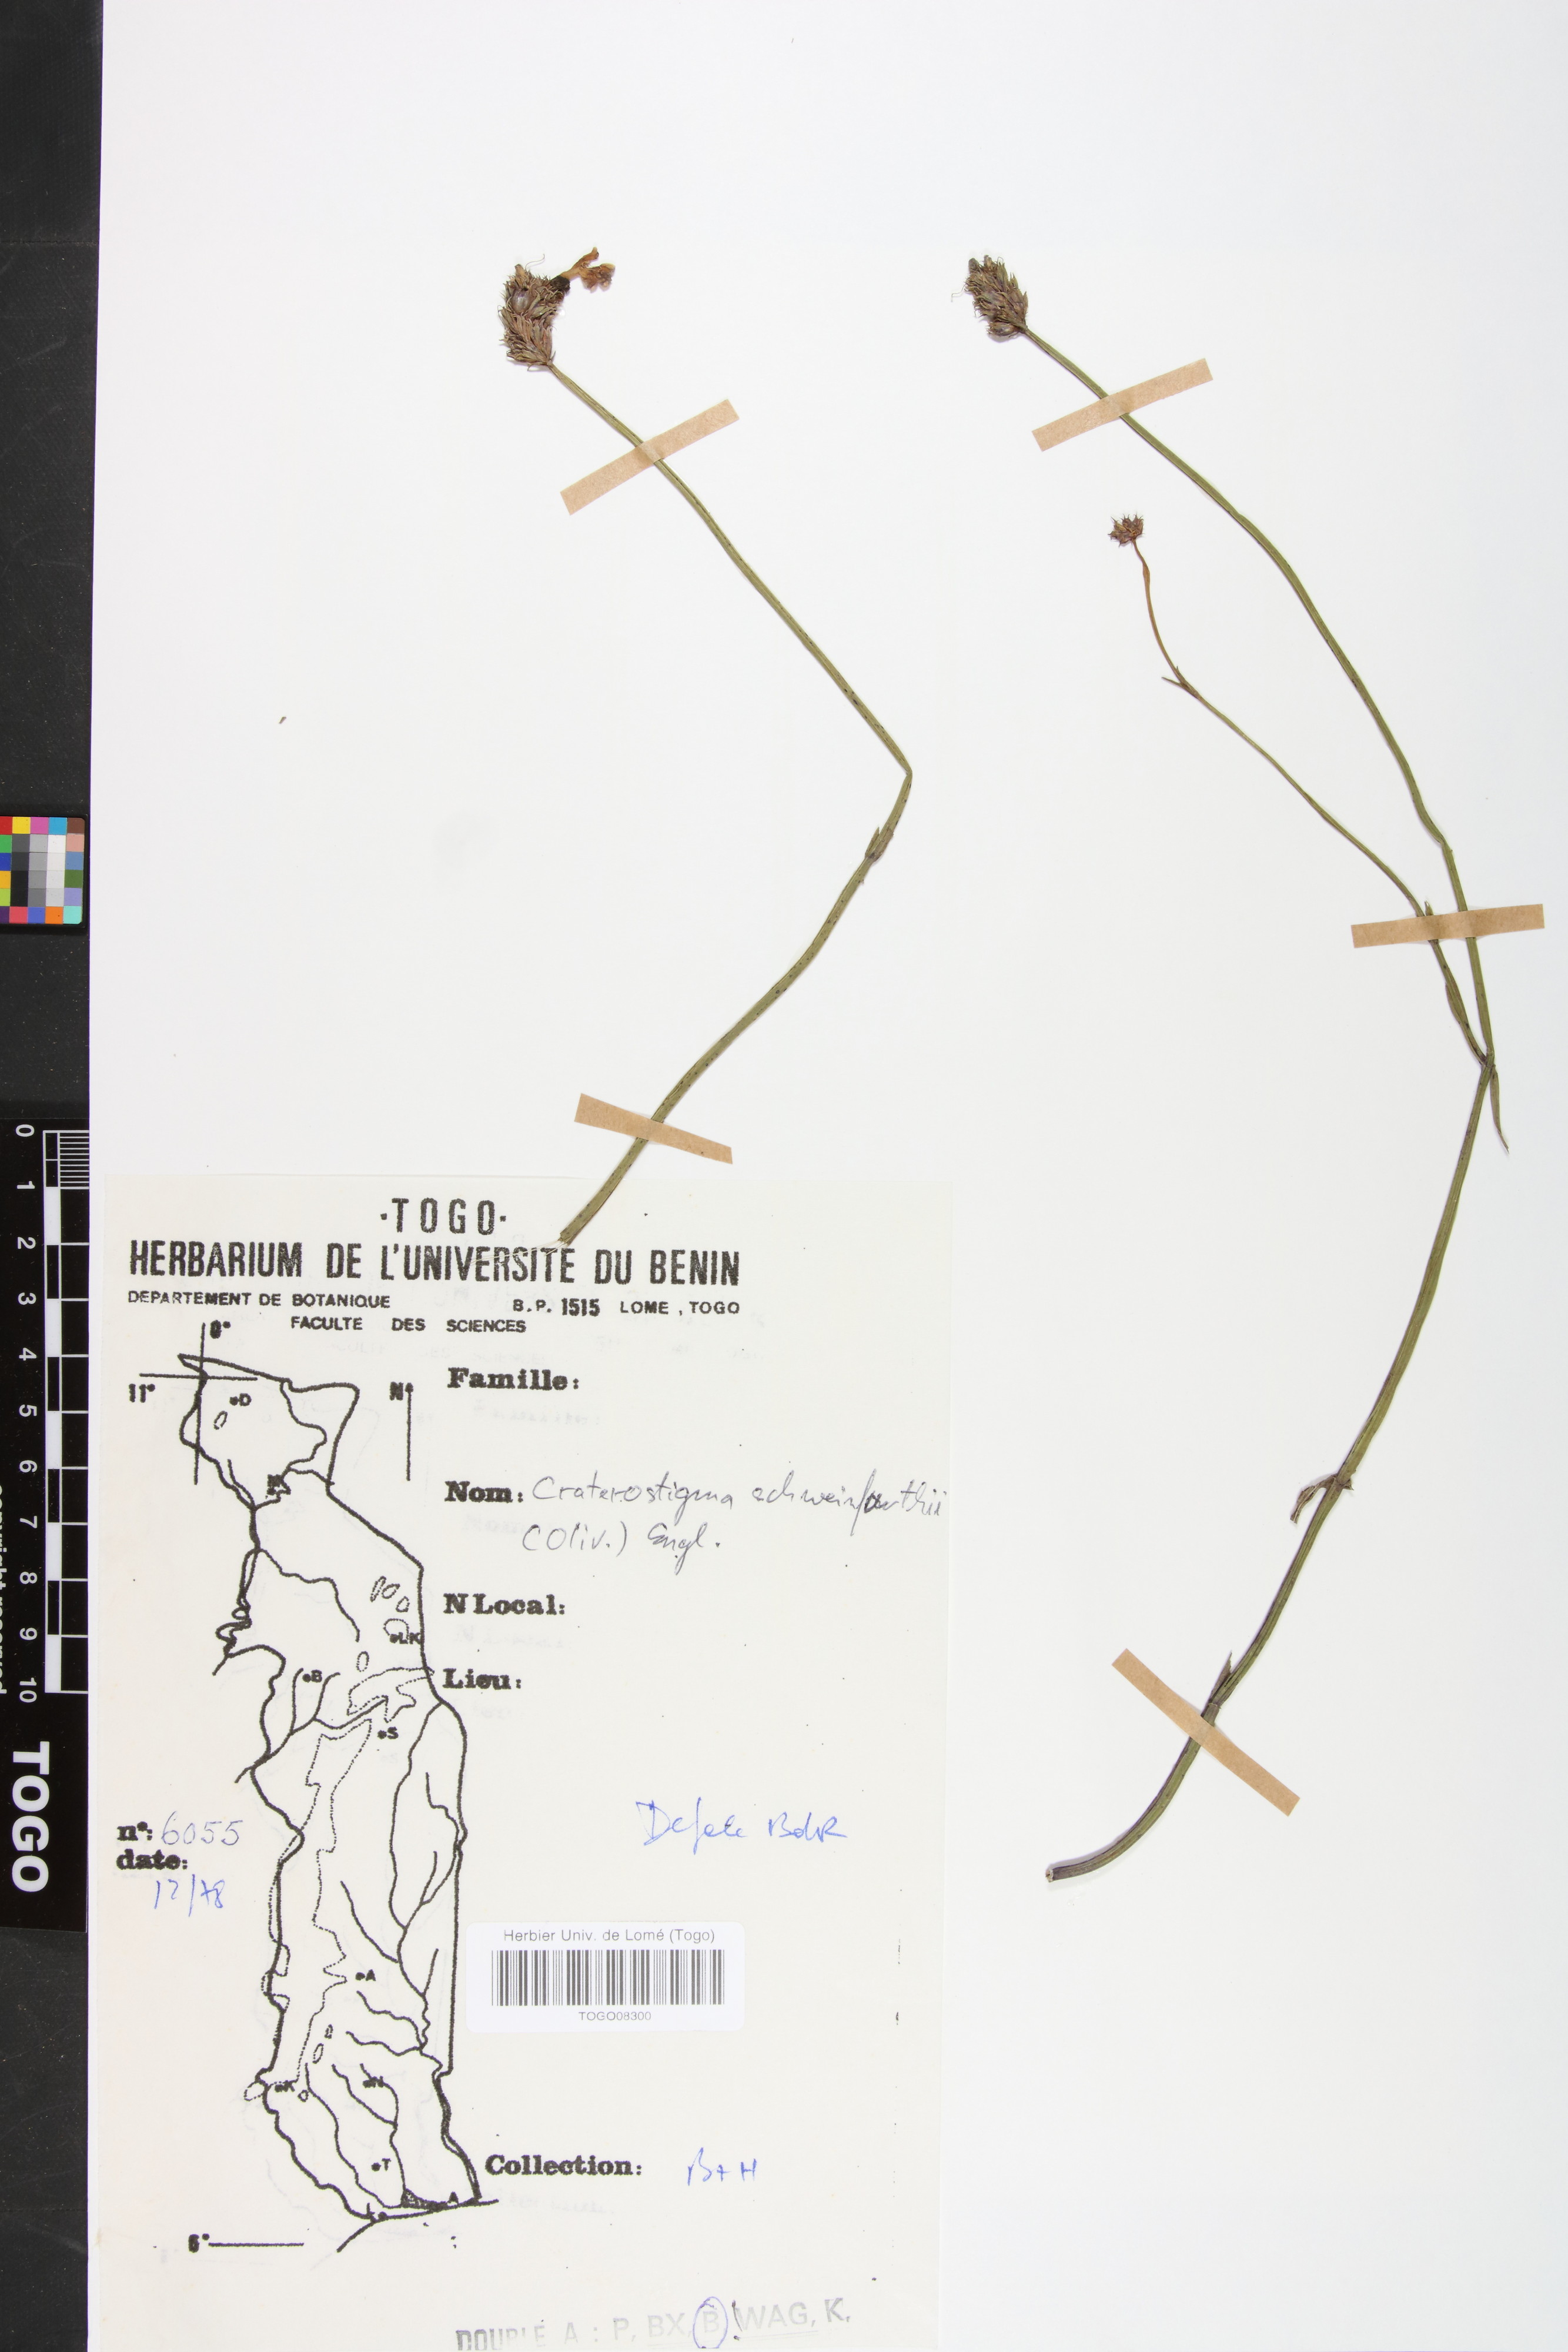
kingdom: Plantae
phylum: Tracheophyta
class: Magnoliopsida
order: Lamiales
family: Linderniaceae
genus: Crepidorhopalon
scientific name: Crepidorhopalon schweinfurthii
